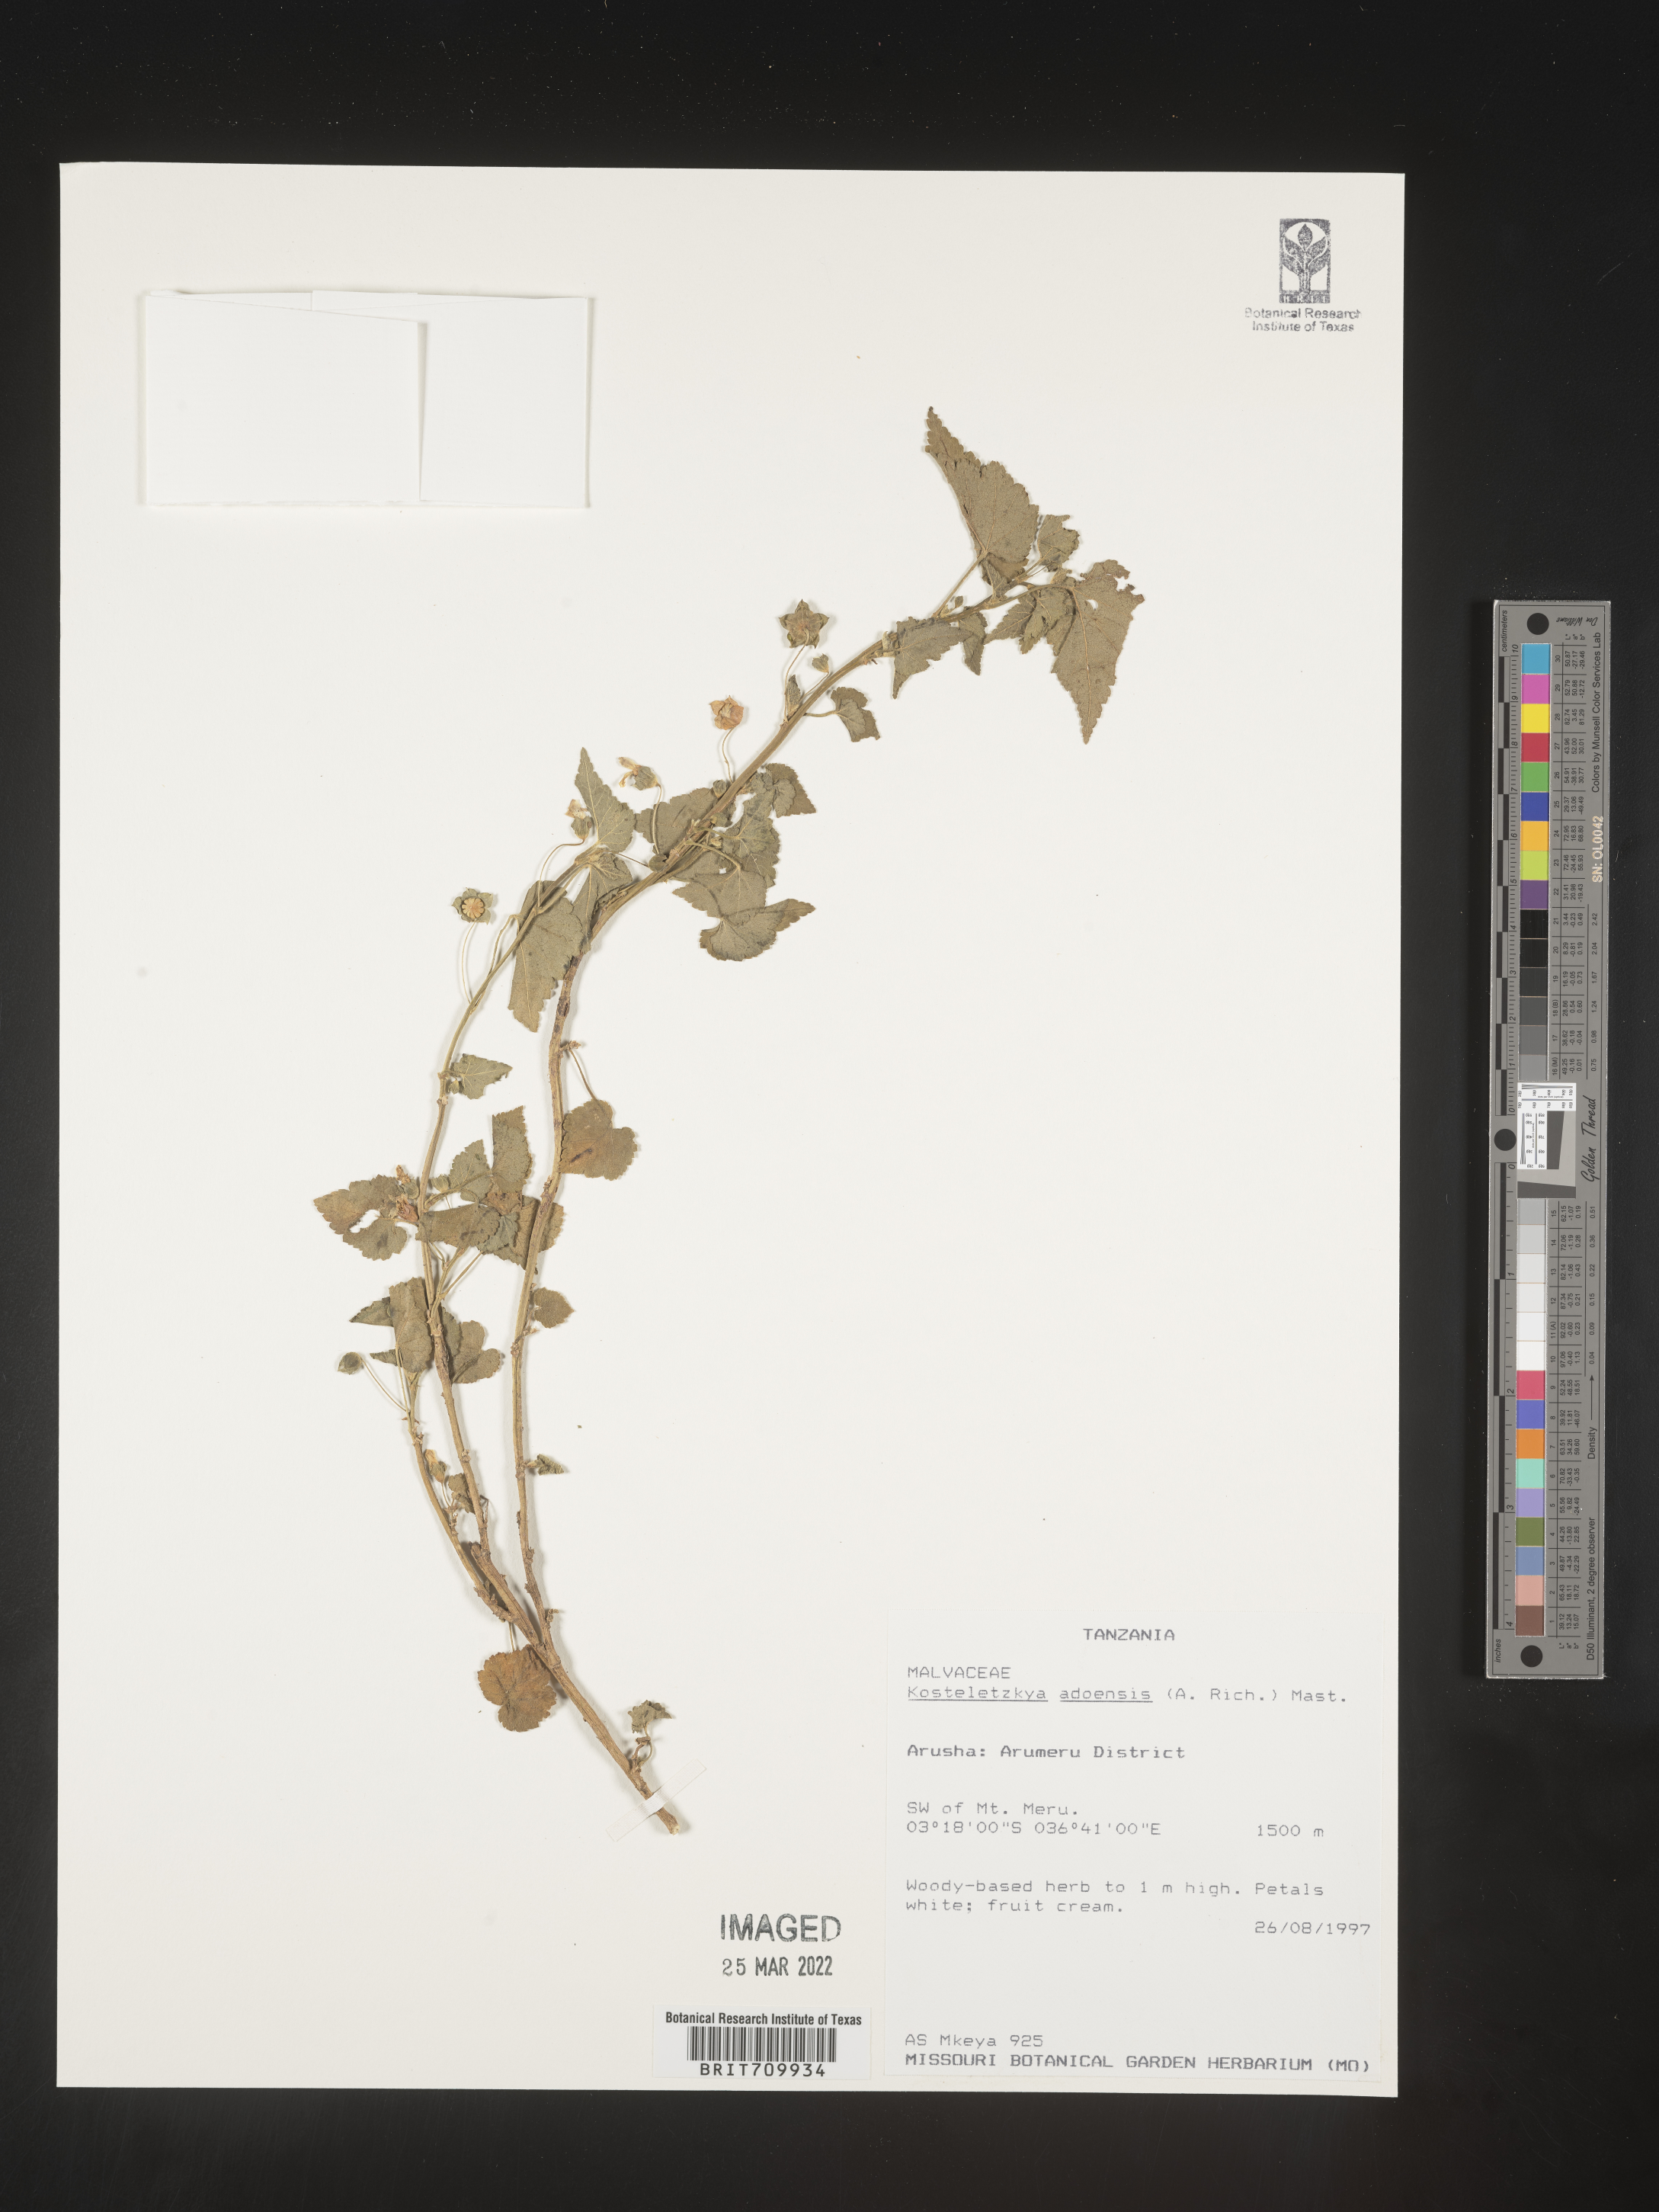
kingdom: Plantae
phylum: Tracheophyta
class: Magnoliopsida
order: Malvales
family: Malvaceae
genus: Kosteletzkya
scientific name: Kosteletzkya adoensis
